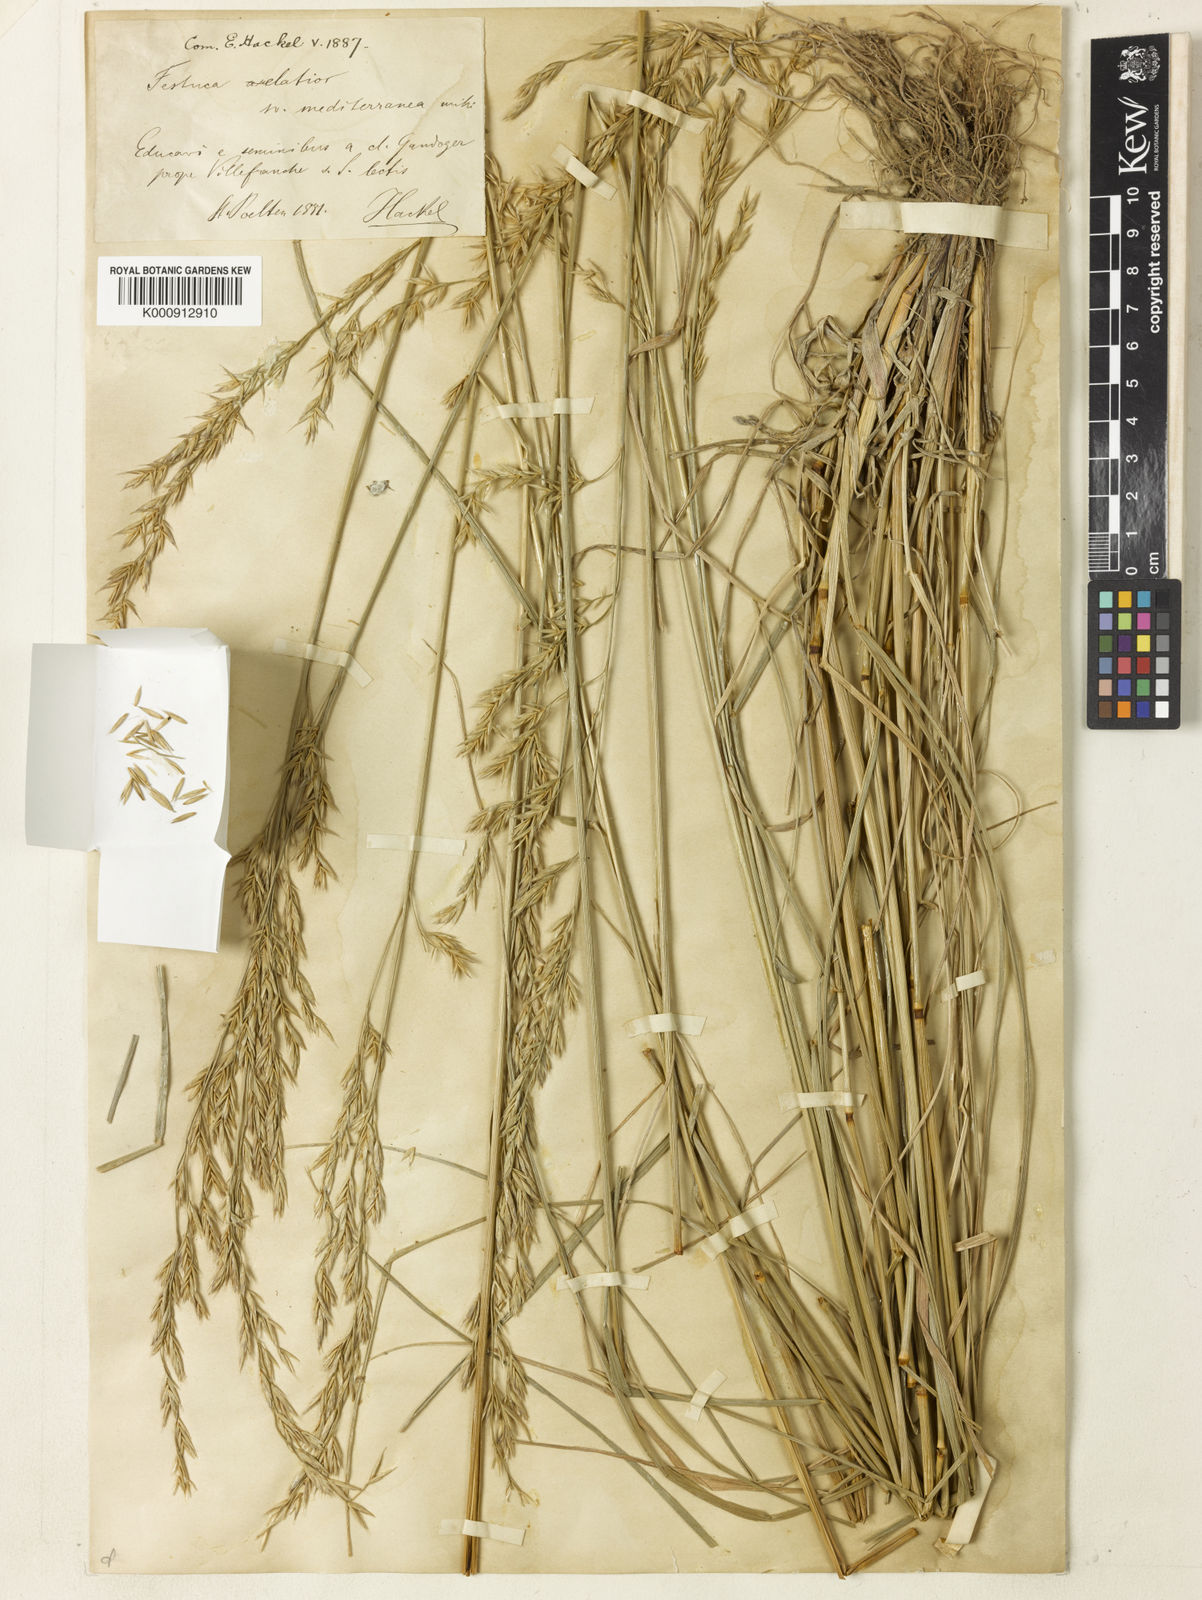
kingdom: Plantae
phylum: Tracheophyta
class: Liliopsida
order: Poales
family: Poaceae
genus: Lolium
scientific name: Lolium arundinaceum
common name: Reed fescue
